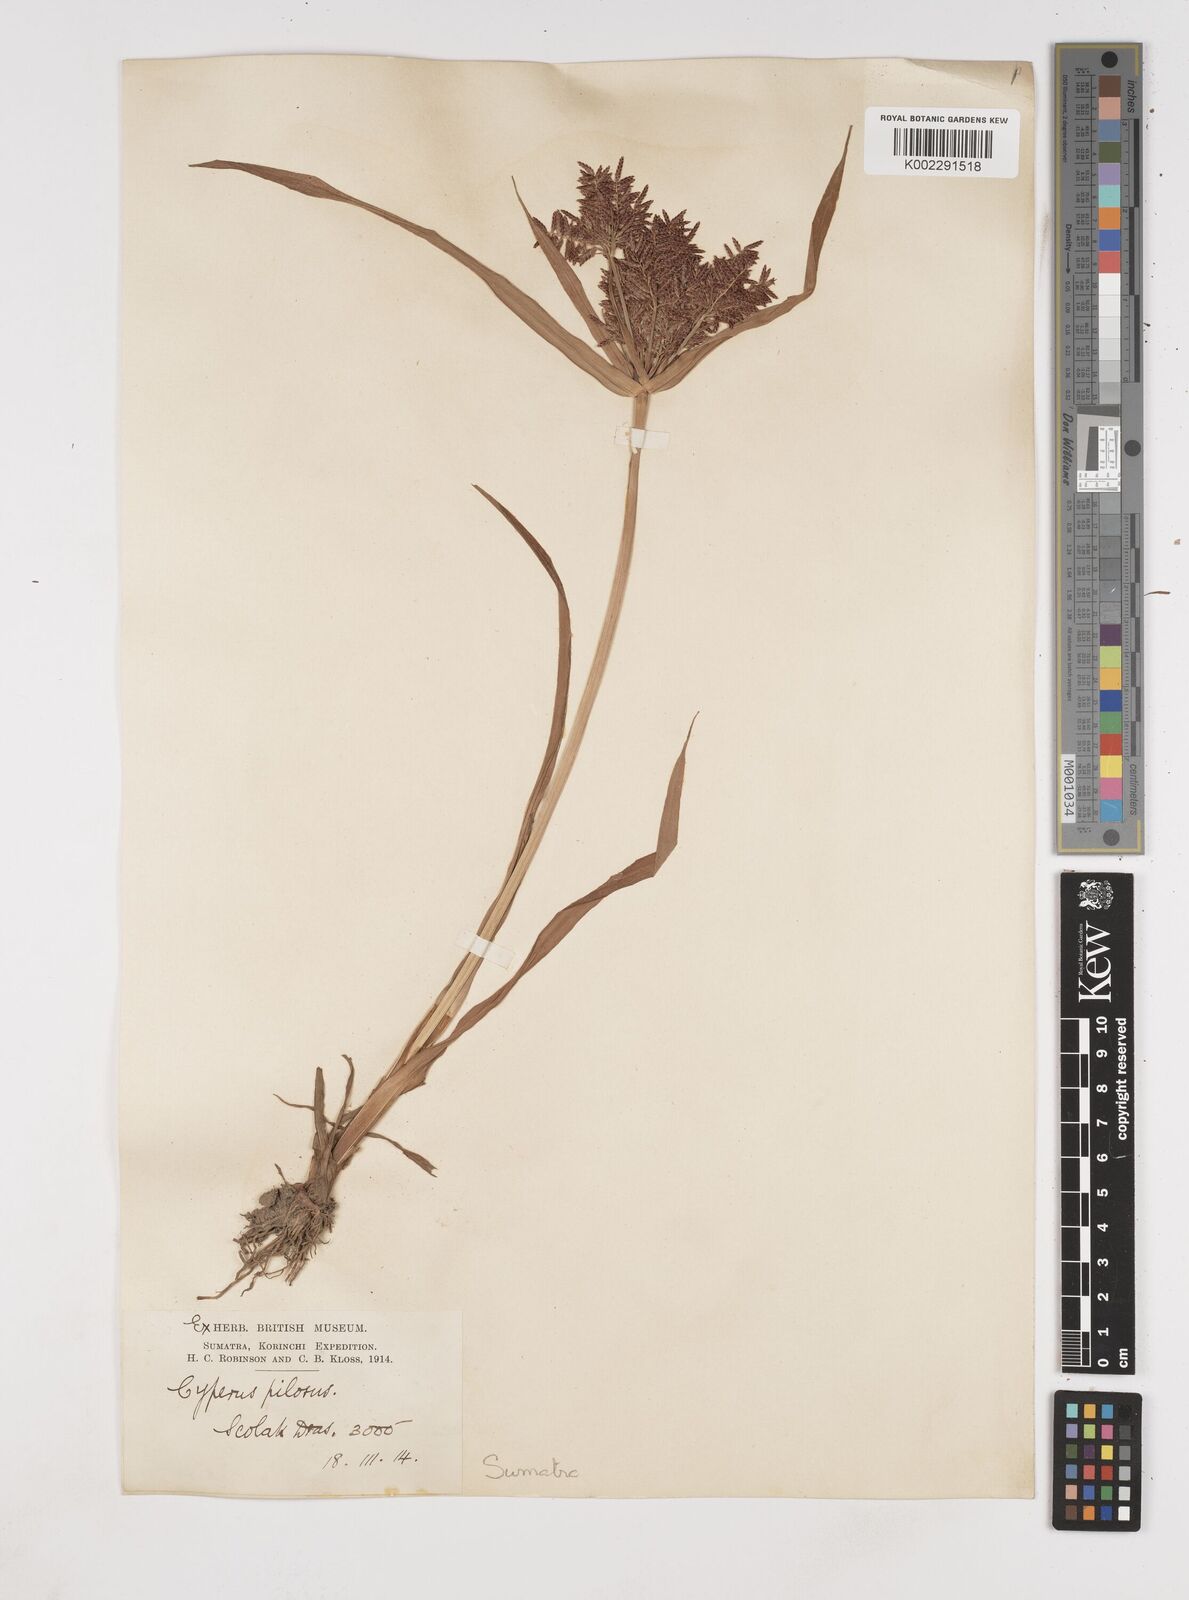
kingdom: Plantae
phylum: Tracheophyta
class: Liliopsida
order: Poales
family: Cyperaceae
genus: Cyperus
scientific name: Cyperus pilosus
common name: Fuzzy flatsedge
